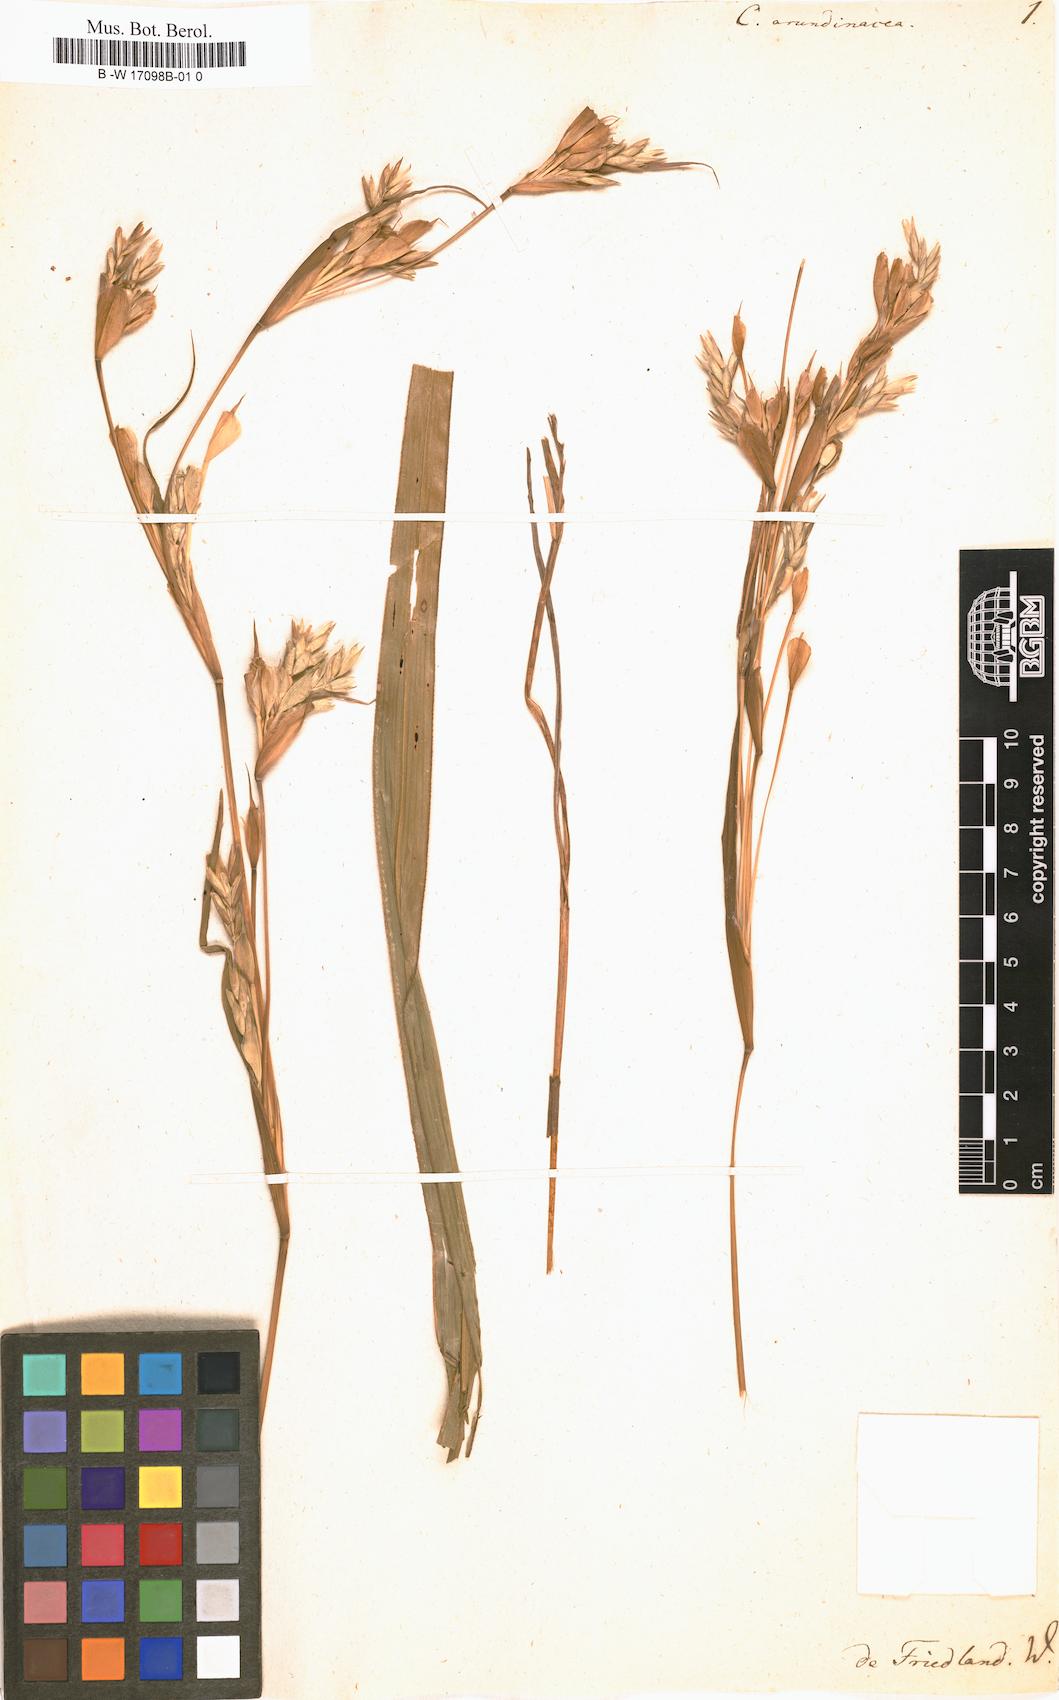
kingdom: Plantae
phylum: Tracheophyta
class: Liliopsida
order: Poales
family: Poaceae
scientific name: Poaceae
